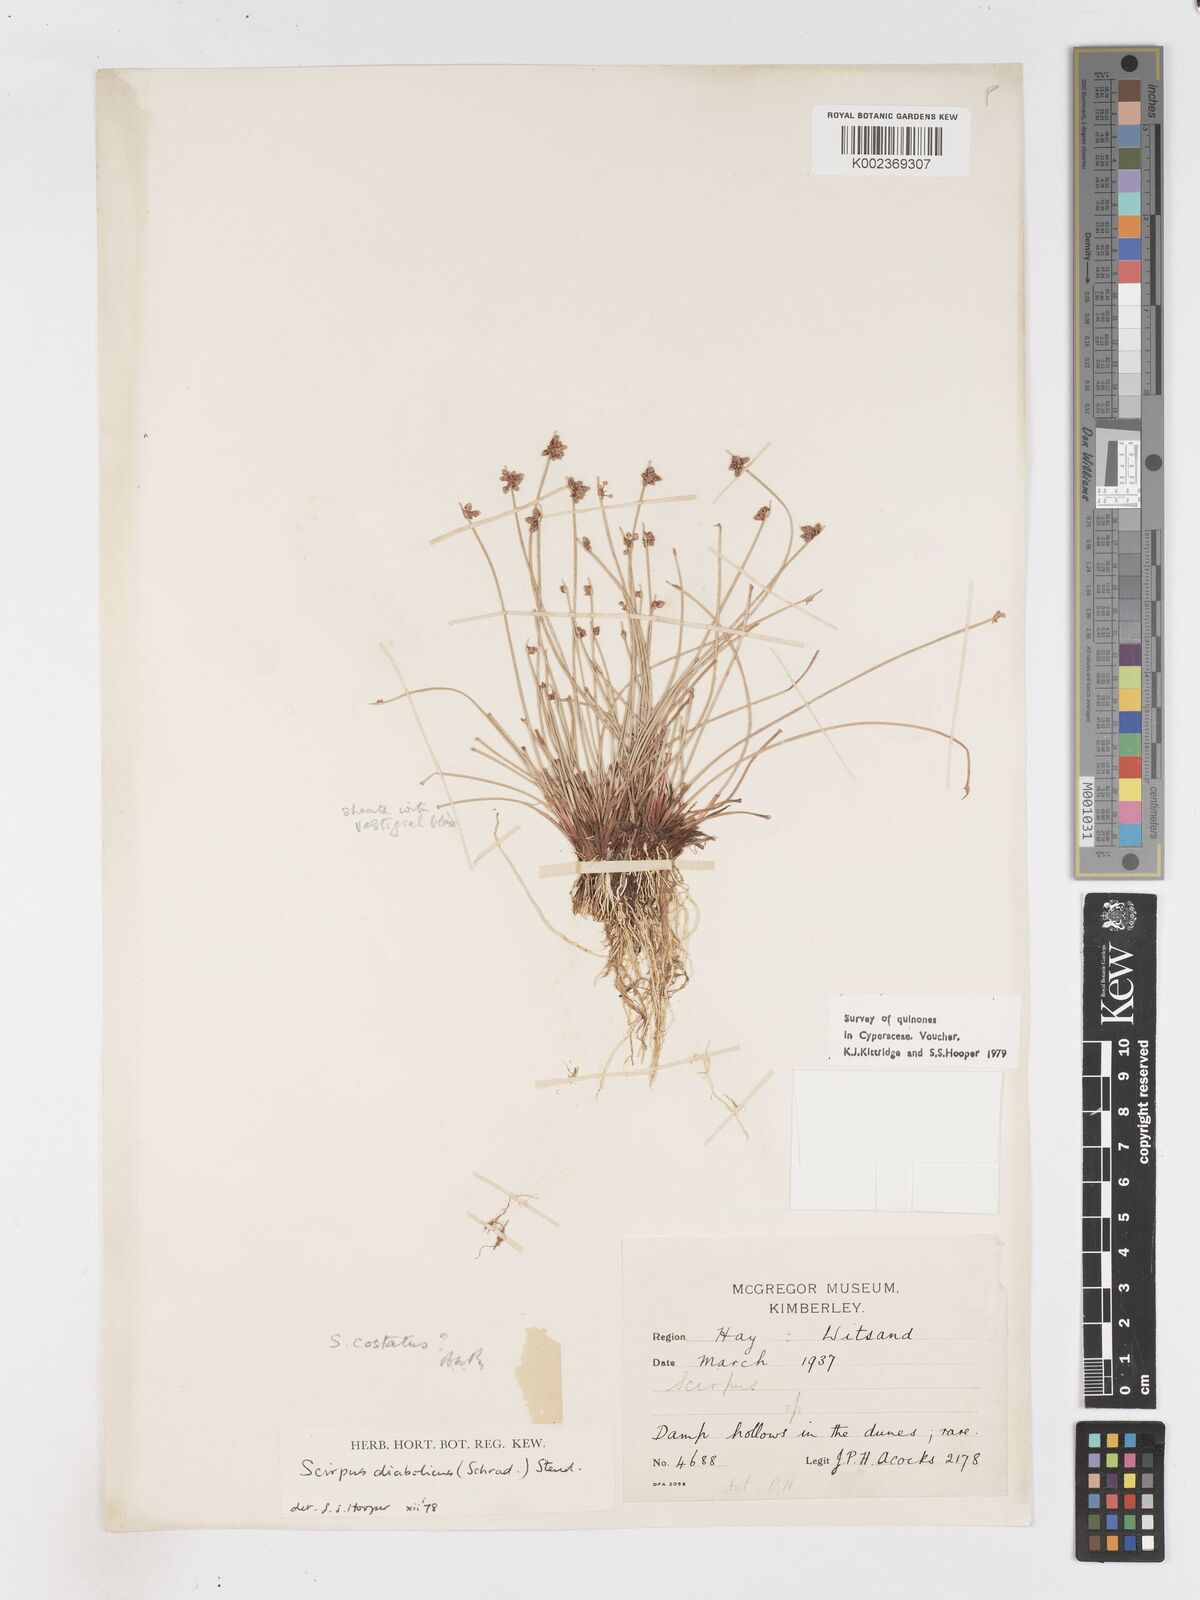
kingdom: Plantae
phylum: Tracheophyta
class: Liliopsida
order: Poales
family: Cyperaceae
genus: Isolepis
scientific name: Isolepis costata
